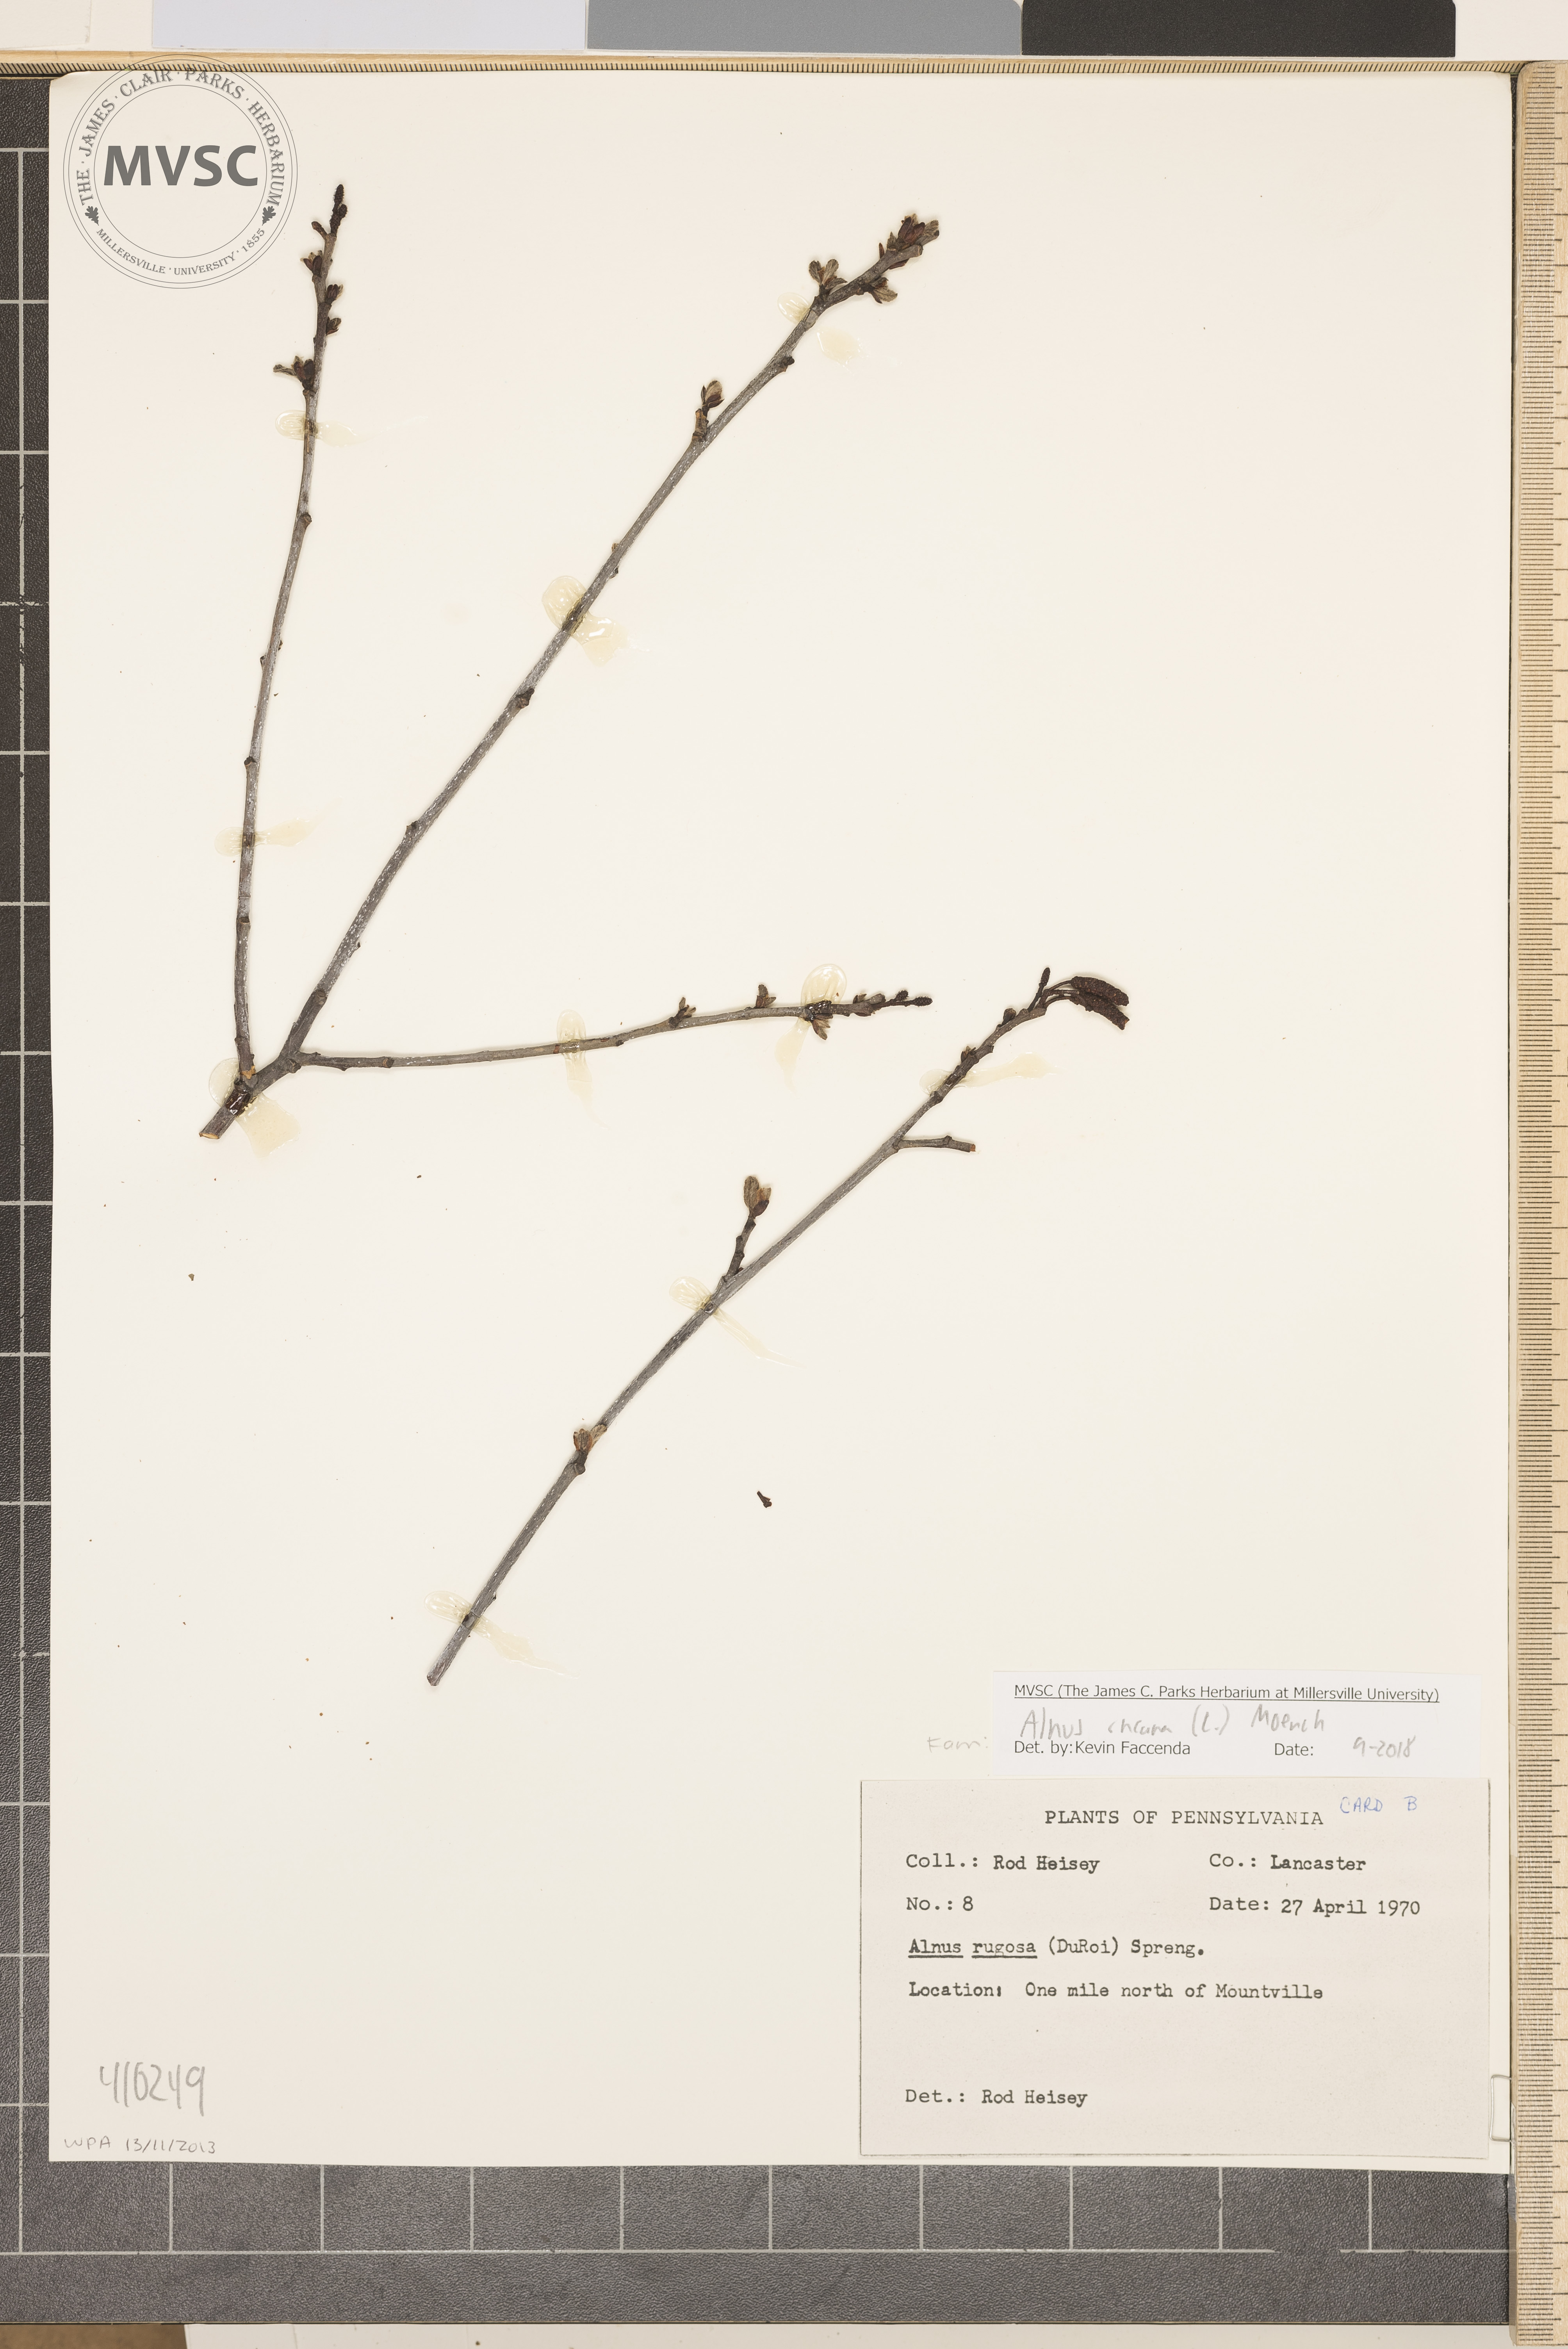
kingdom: Plantae
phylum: Tracheophyta
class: Magnoliopsida
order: Fagales
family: Betulaceae
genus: Alnus
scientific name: Alnus incana
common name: Grey alder
